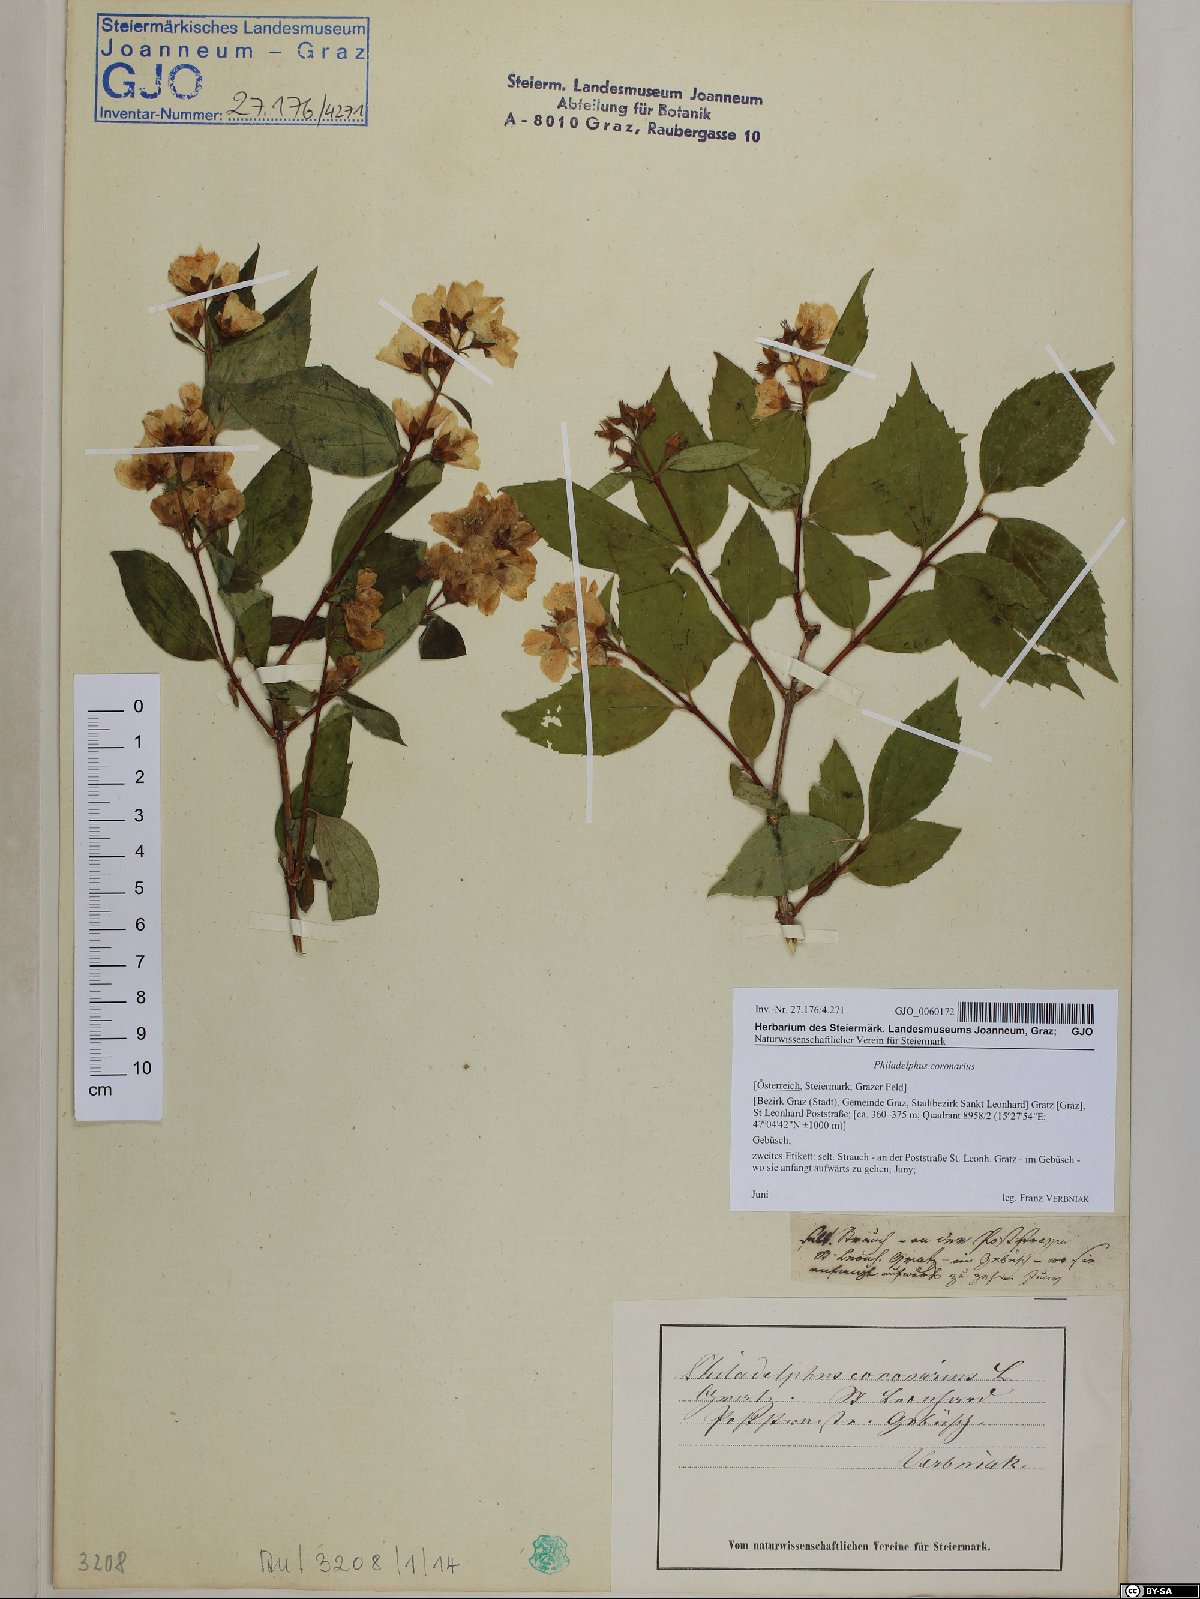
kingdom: Plantae
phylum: Tracheophyta
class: Magnoliopsida
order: Cornales
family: Hydrangeaceae
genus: Philadelphus
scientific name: Philadelphus coronarius
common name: Mock orange
